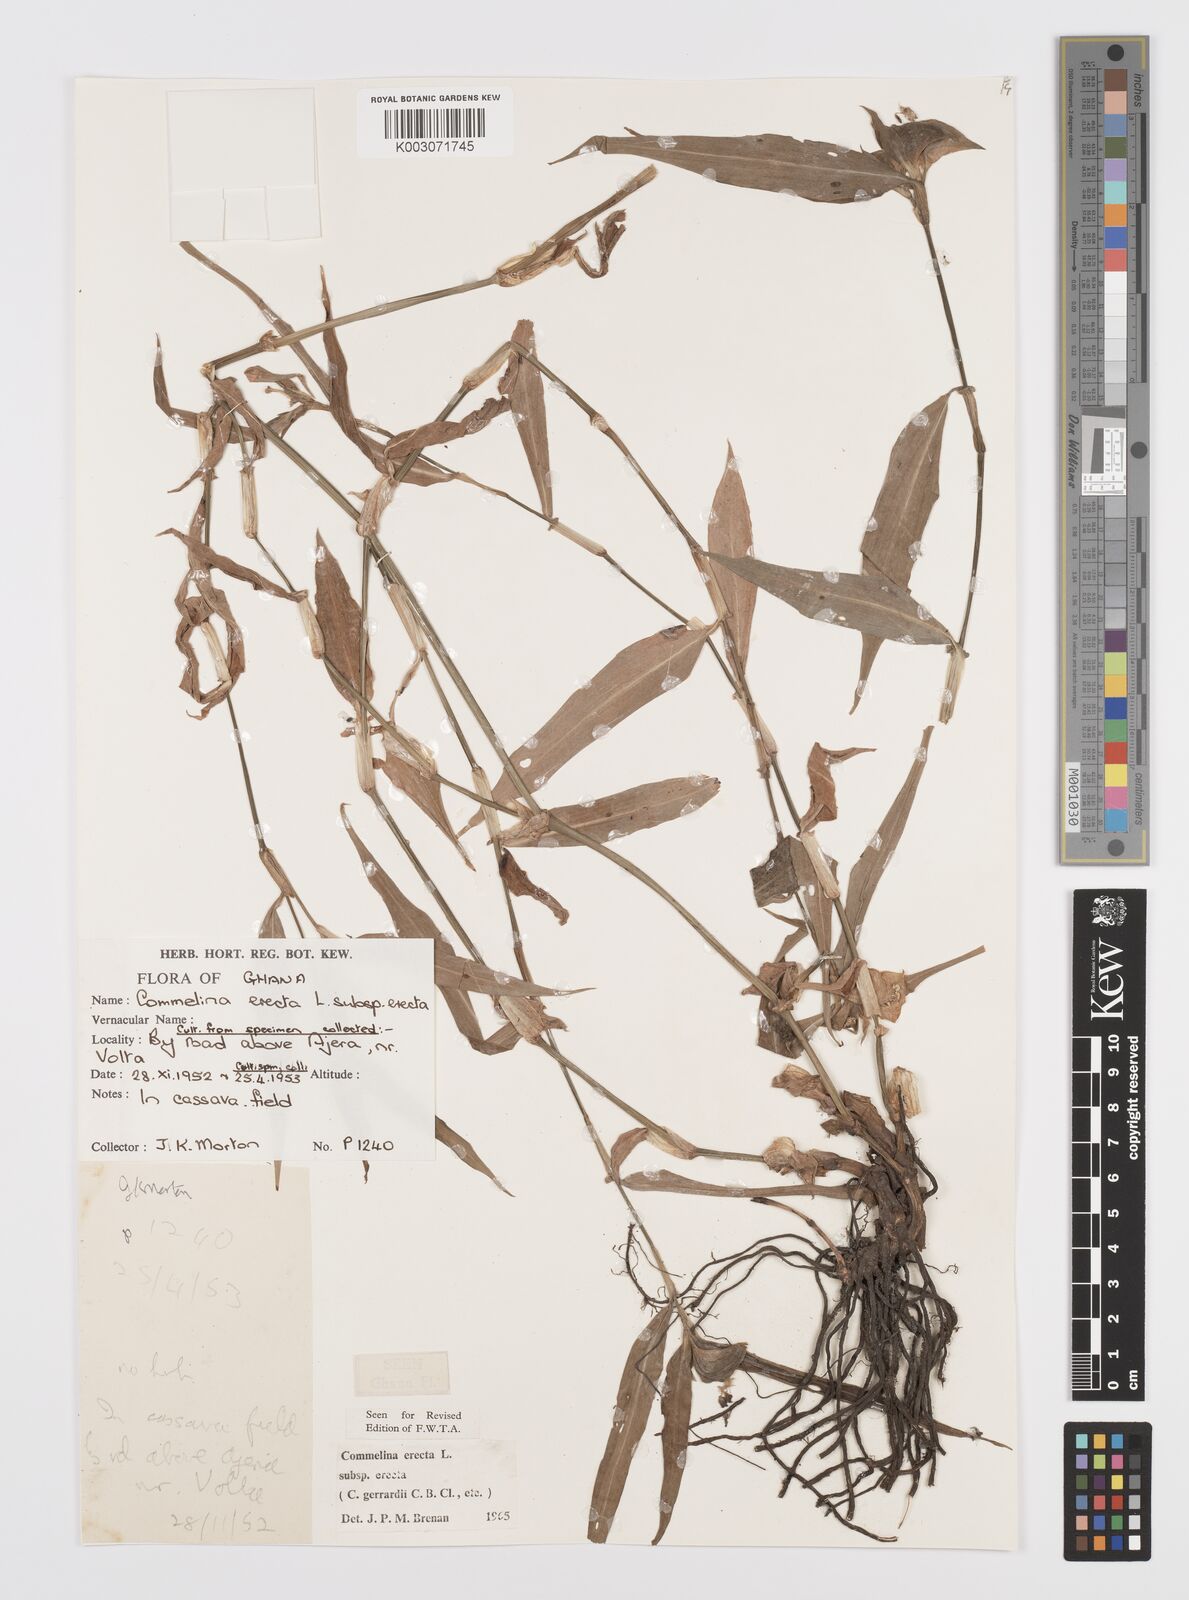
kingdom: Plantae
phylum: Tracheophyta
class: Liliopsida
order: Commelinales
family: Commelinaceae
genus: Commelina
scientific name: Commelina erecta
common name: Blousel blommetjie
